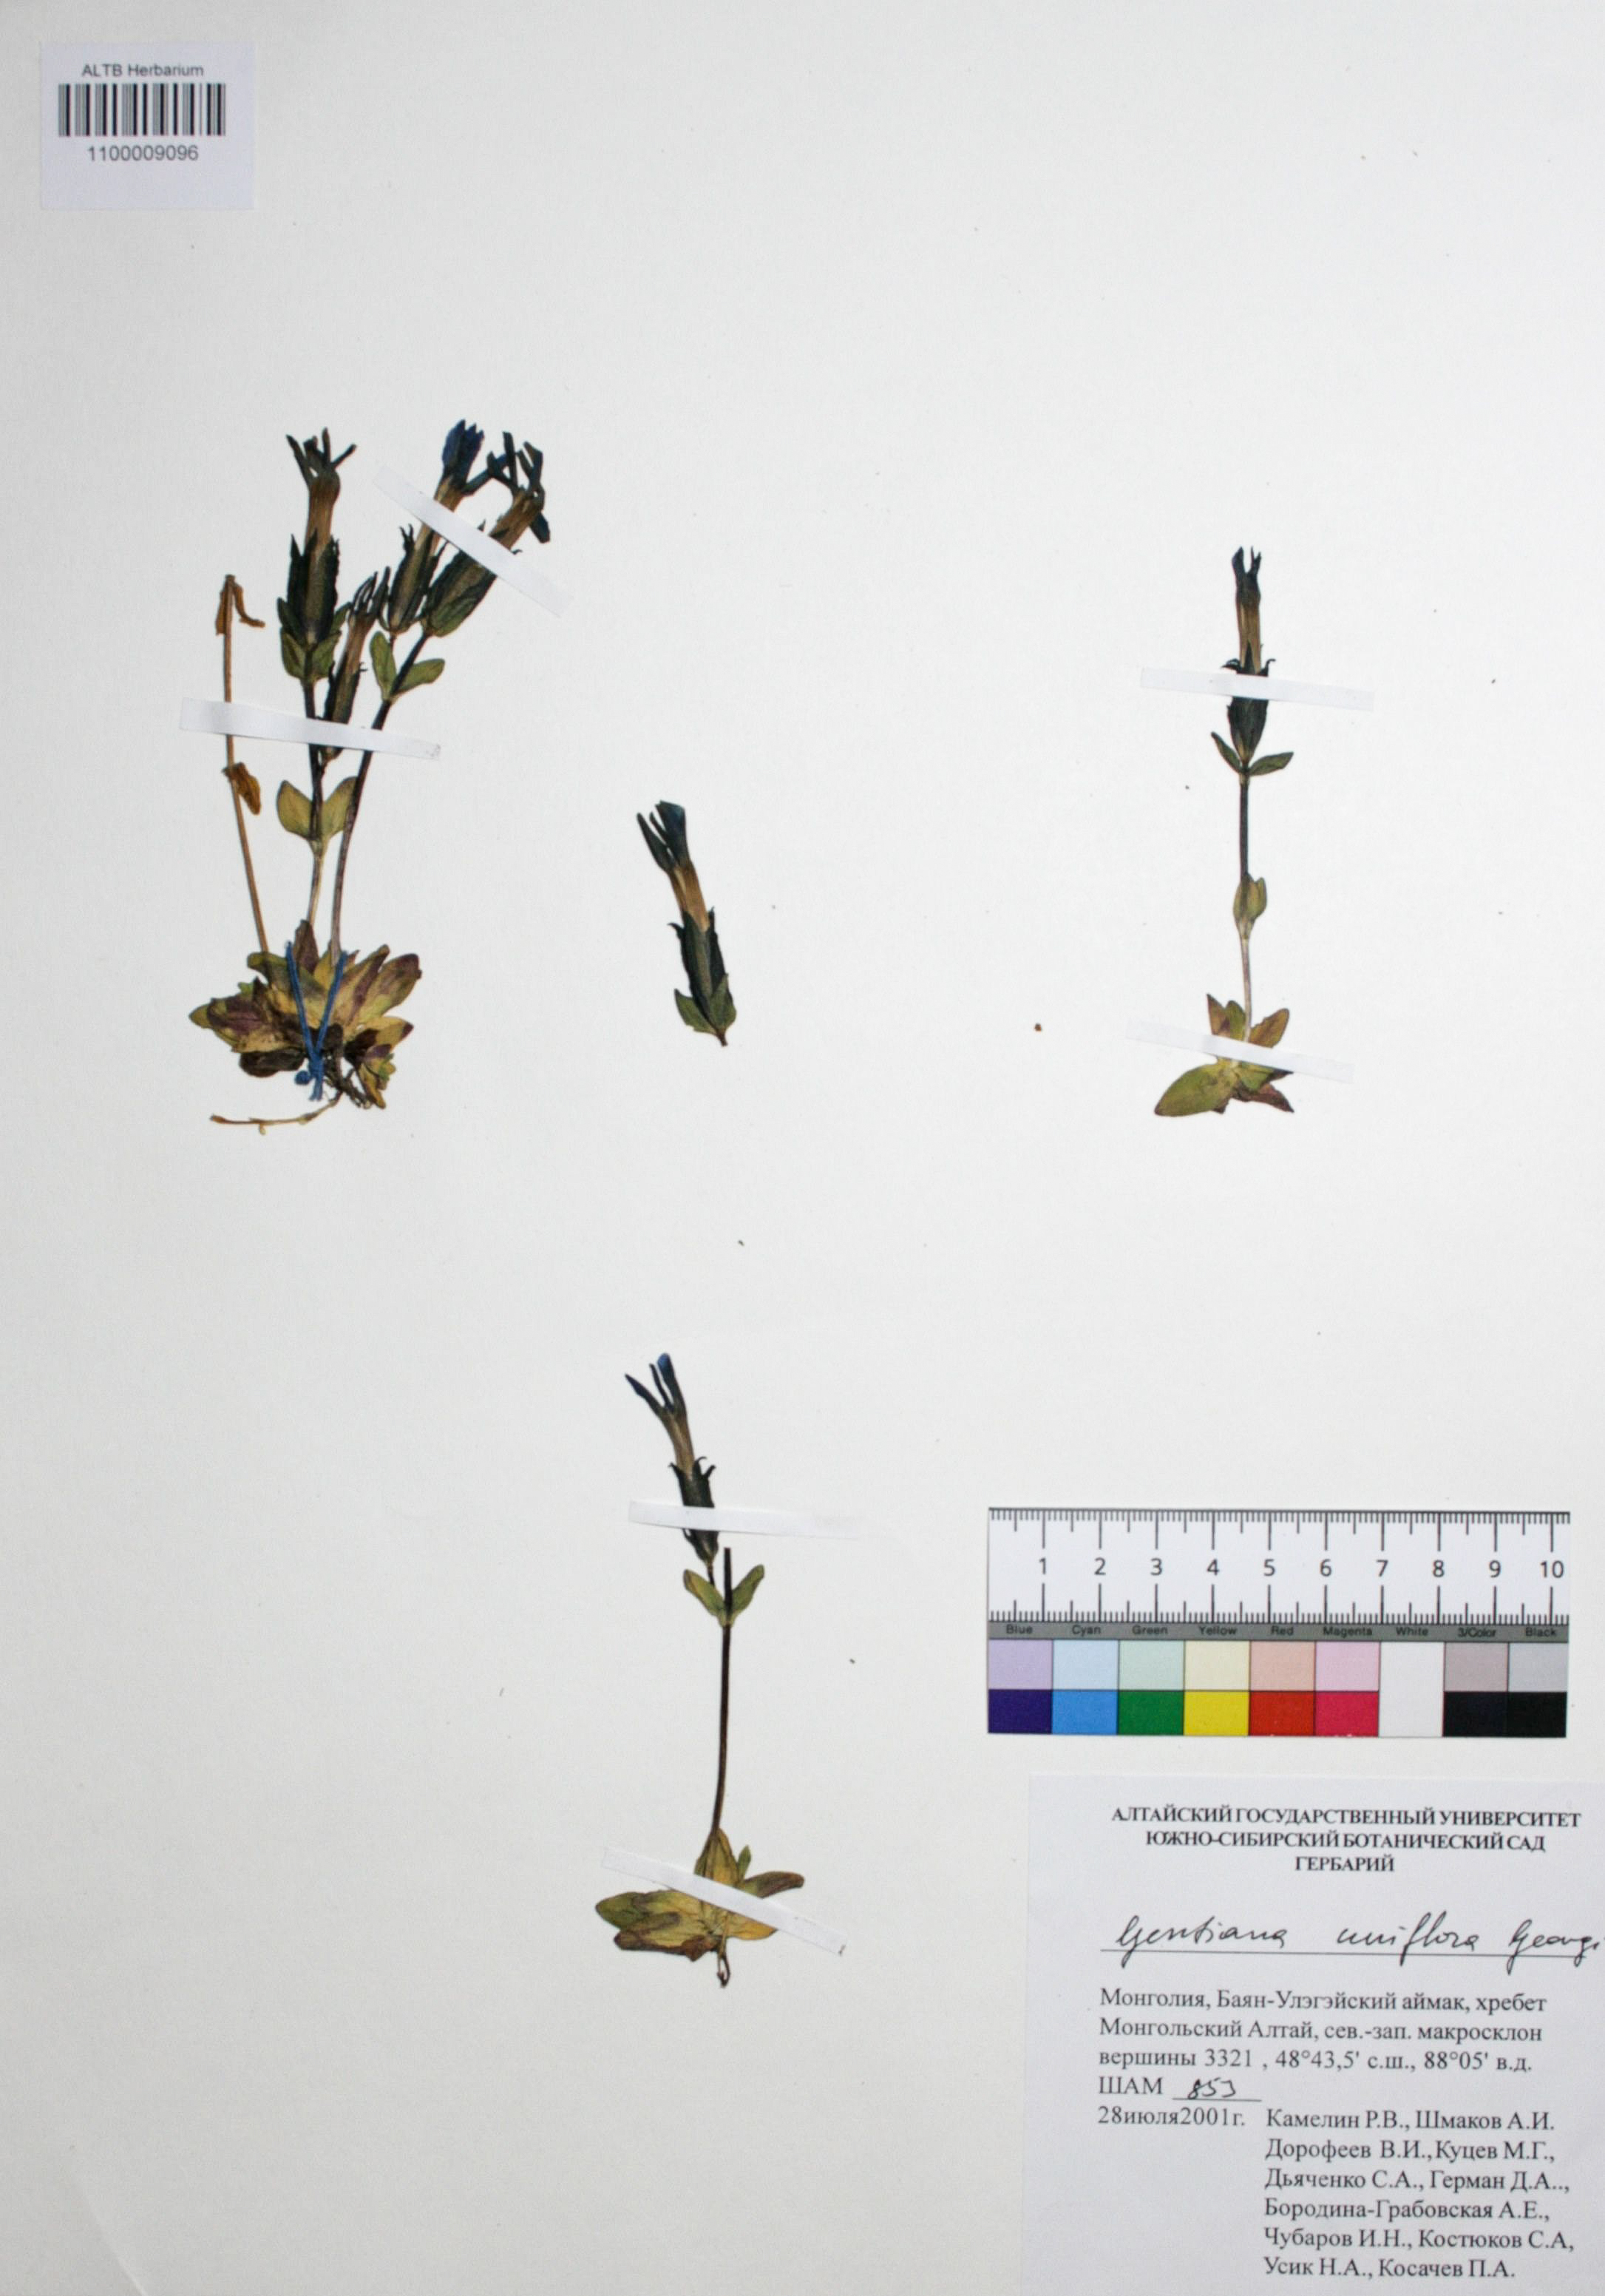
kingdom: Plantae
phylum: Tracheophyta
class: Magnoliopsida
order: Gentianales
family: Gentianaceae
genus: Gentiana
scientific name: Gentiana uniflora
